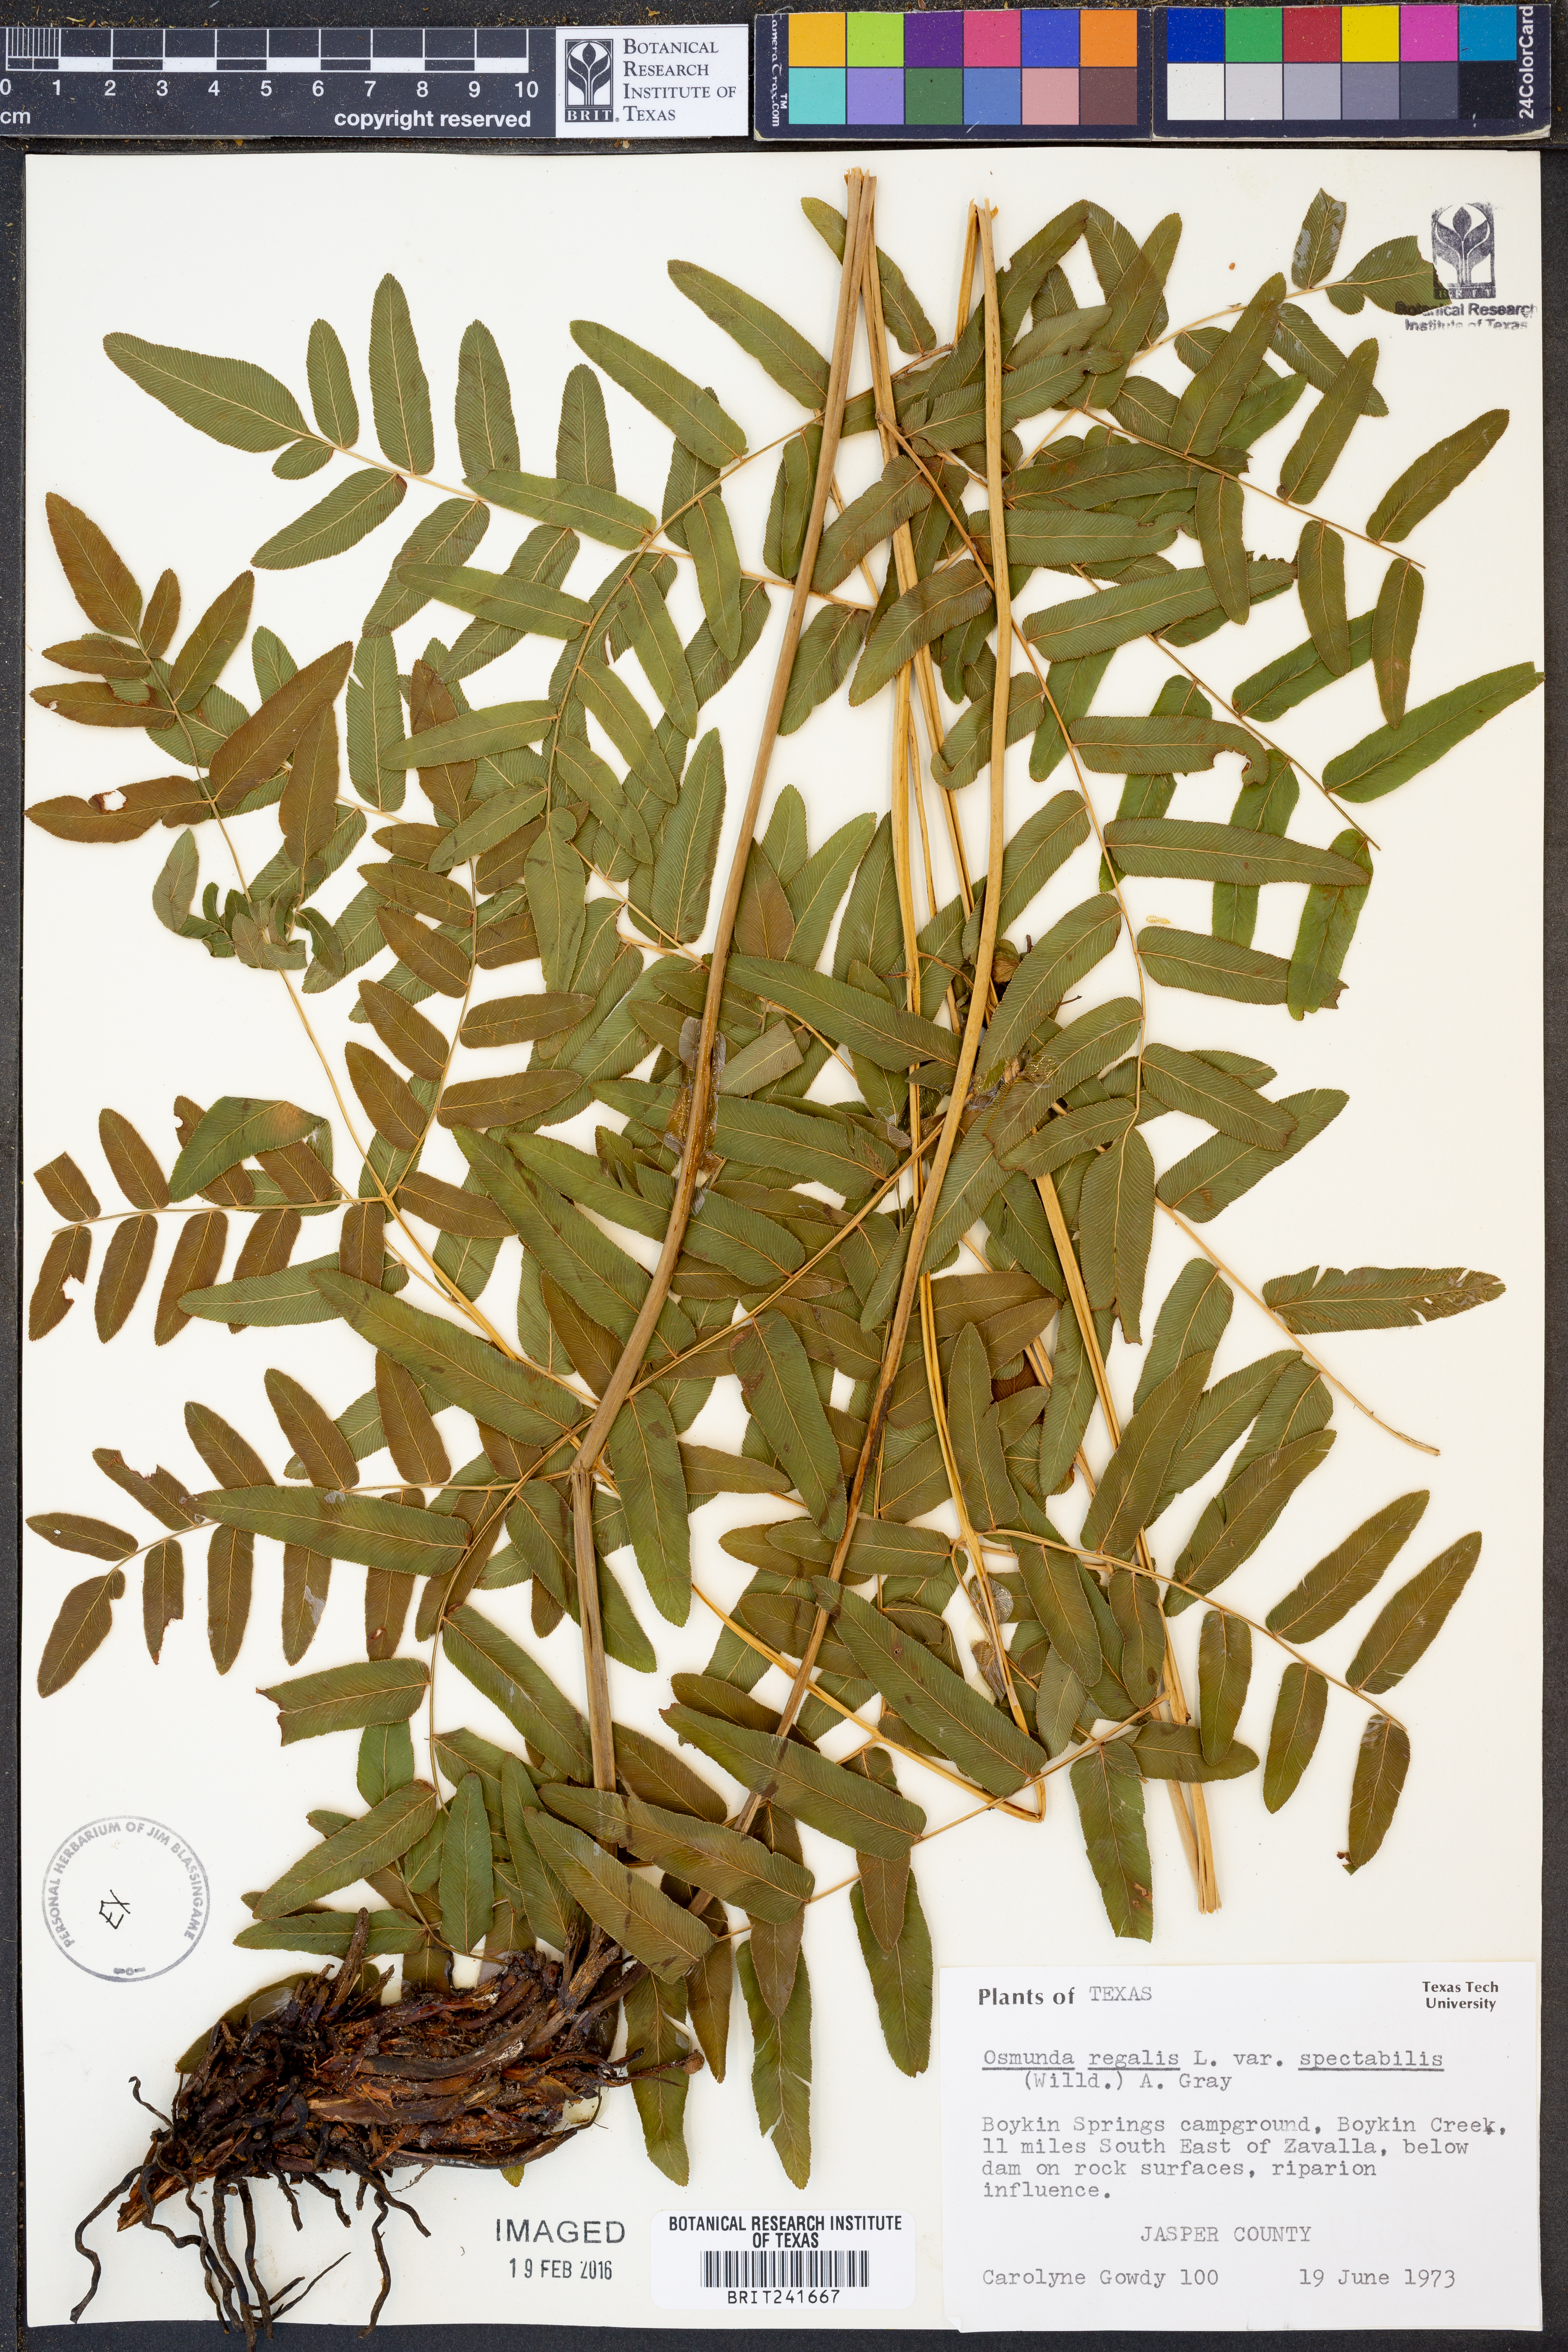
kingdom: Plantae
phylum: Tracheophyta
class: Polypodiopsida
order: Osmundales
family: Osmundaceae
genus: Osmunda
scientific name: Osmunda spectabilis
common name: American royal fern
